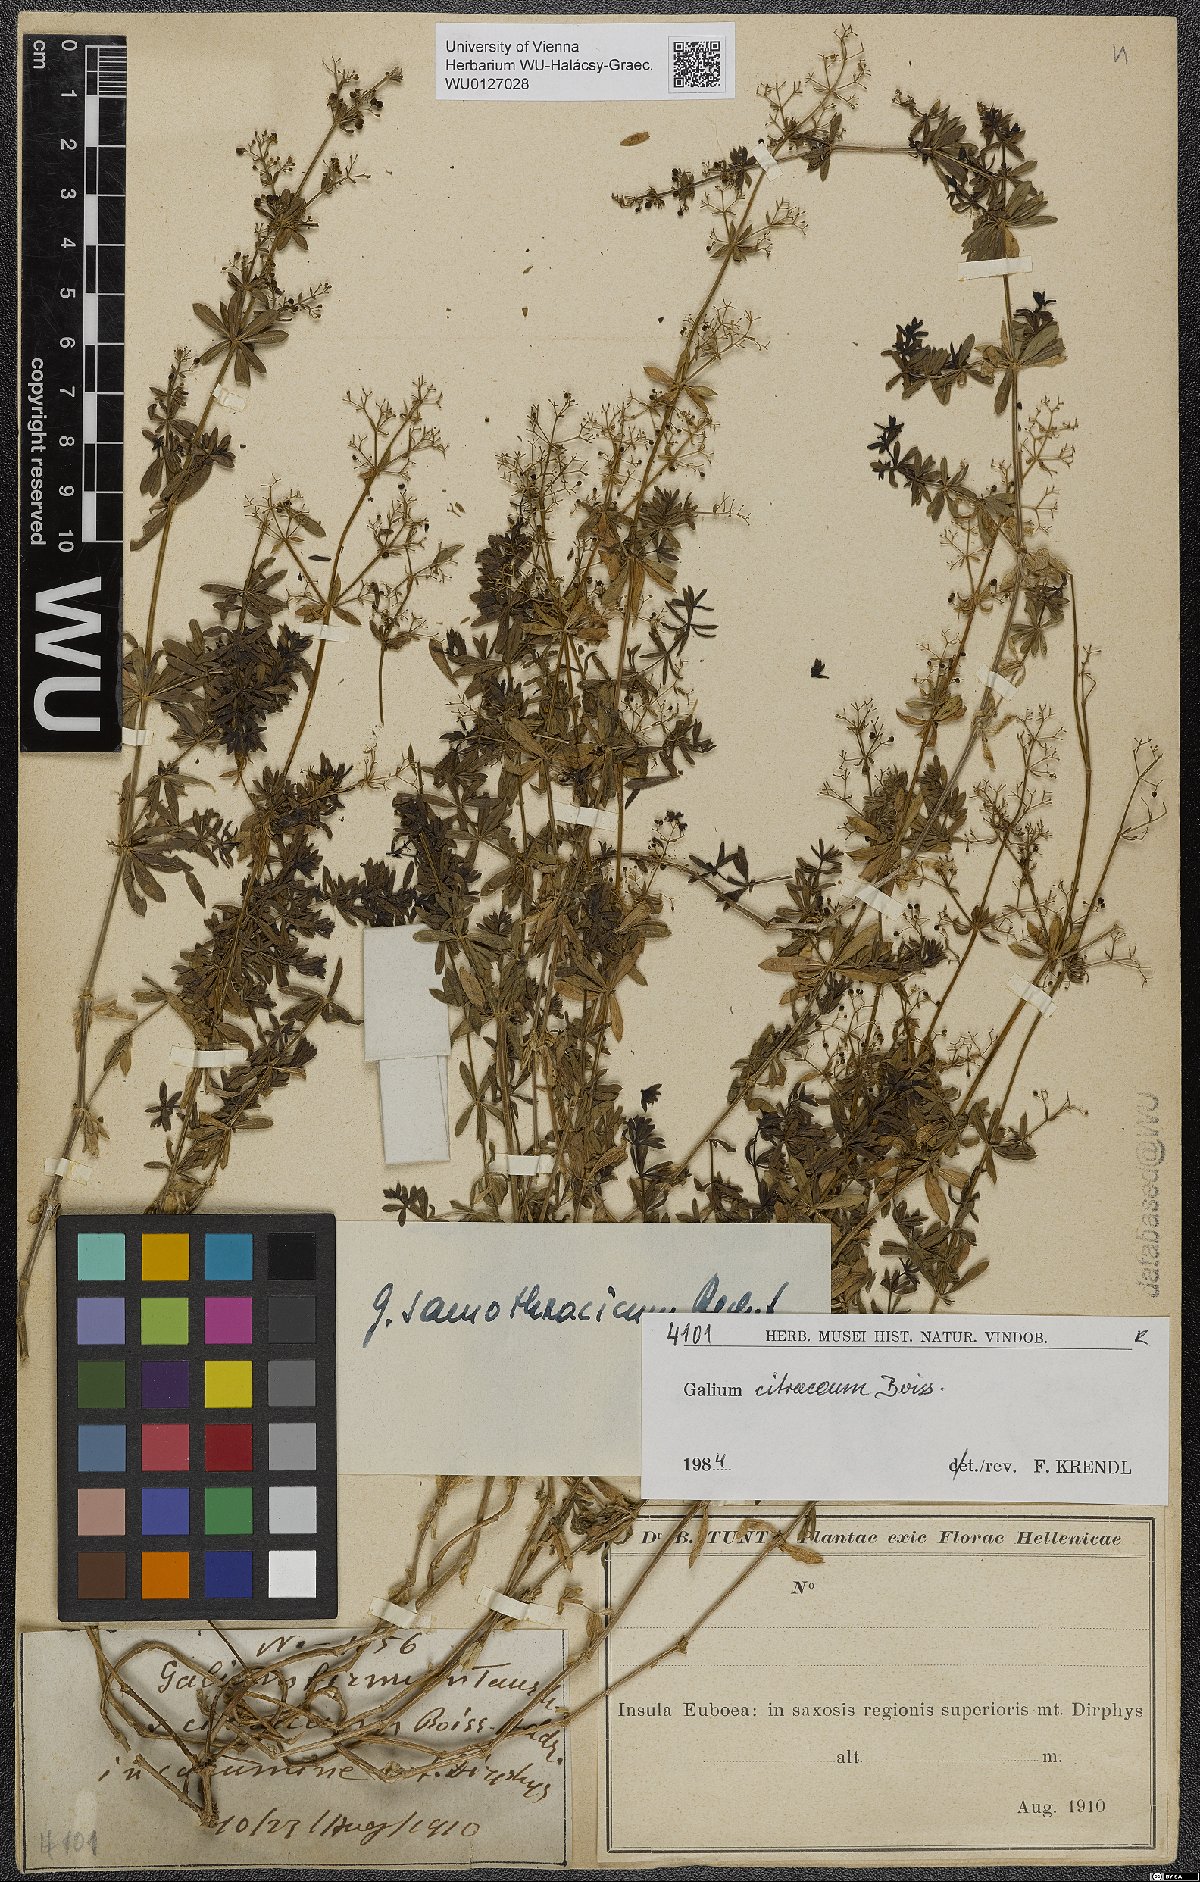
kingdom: Plantae
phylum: Tracheophyta
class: Magnoliopsida
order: Gentianales
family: Rubiaceae
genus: Galium
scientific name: Galium citraceum
